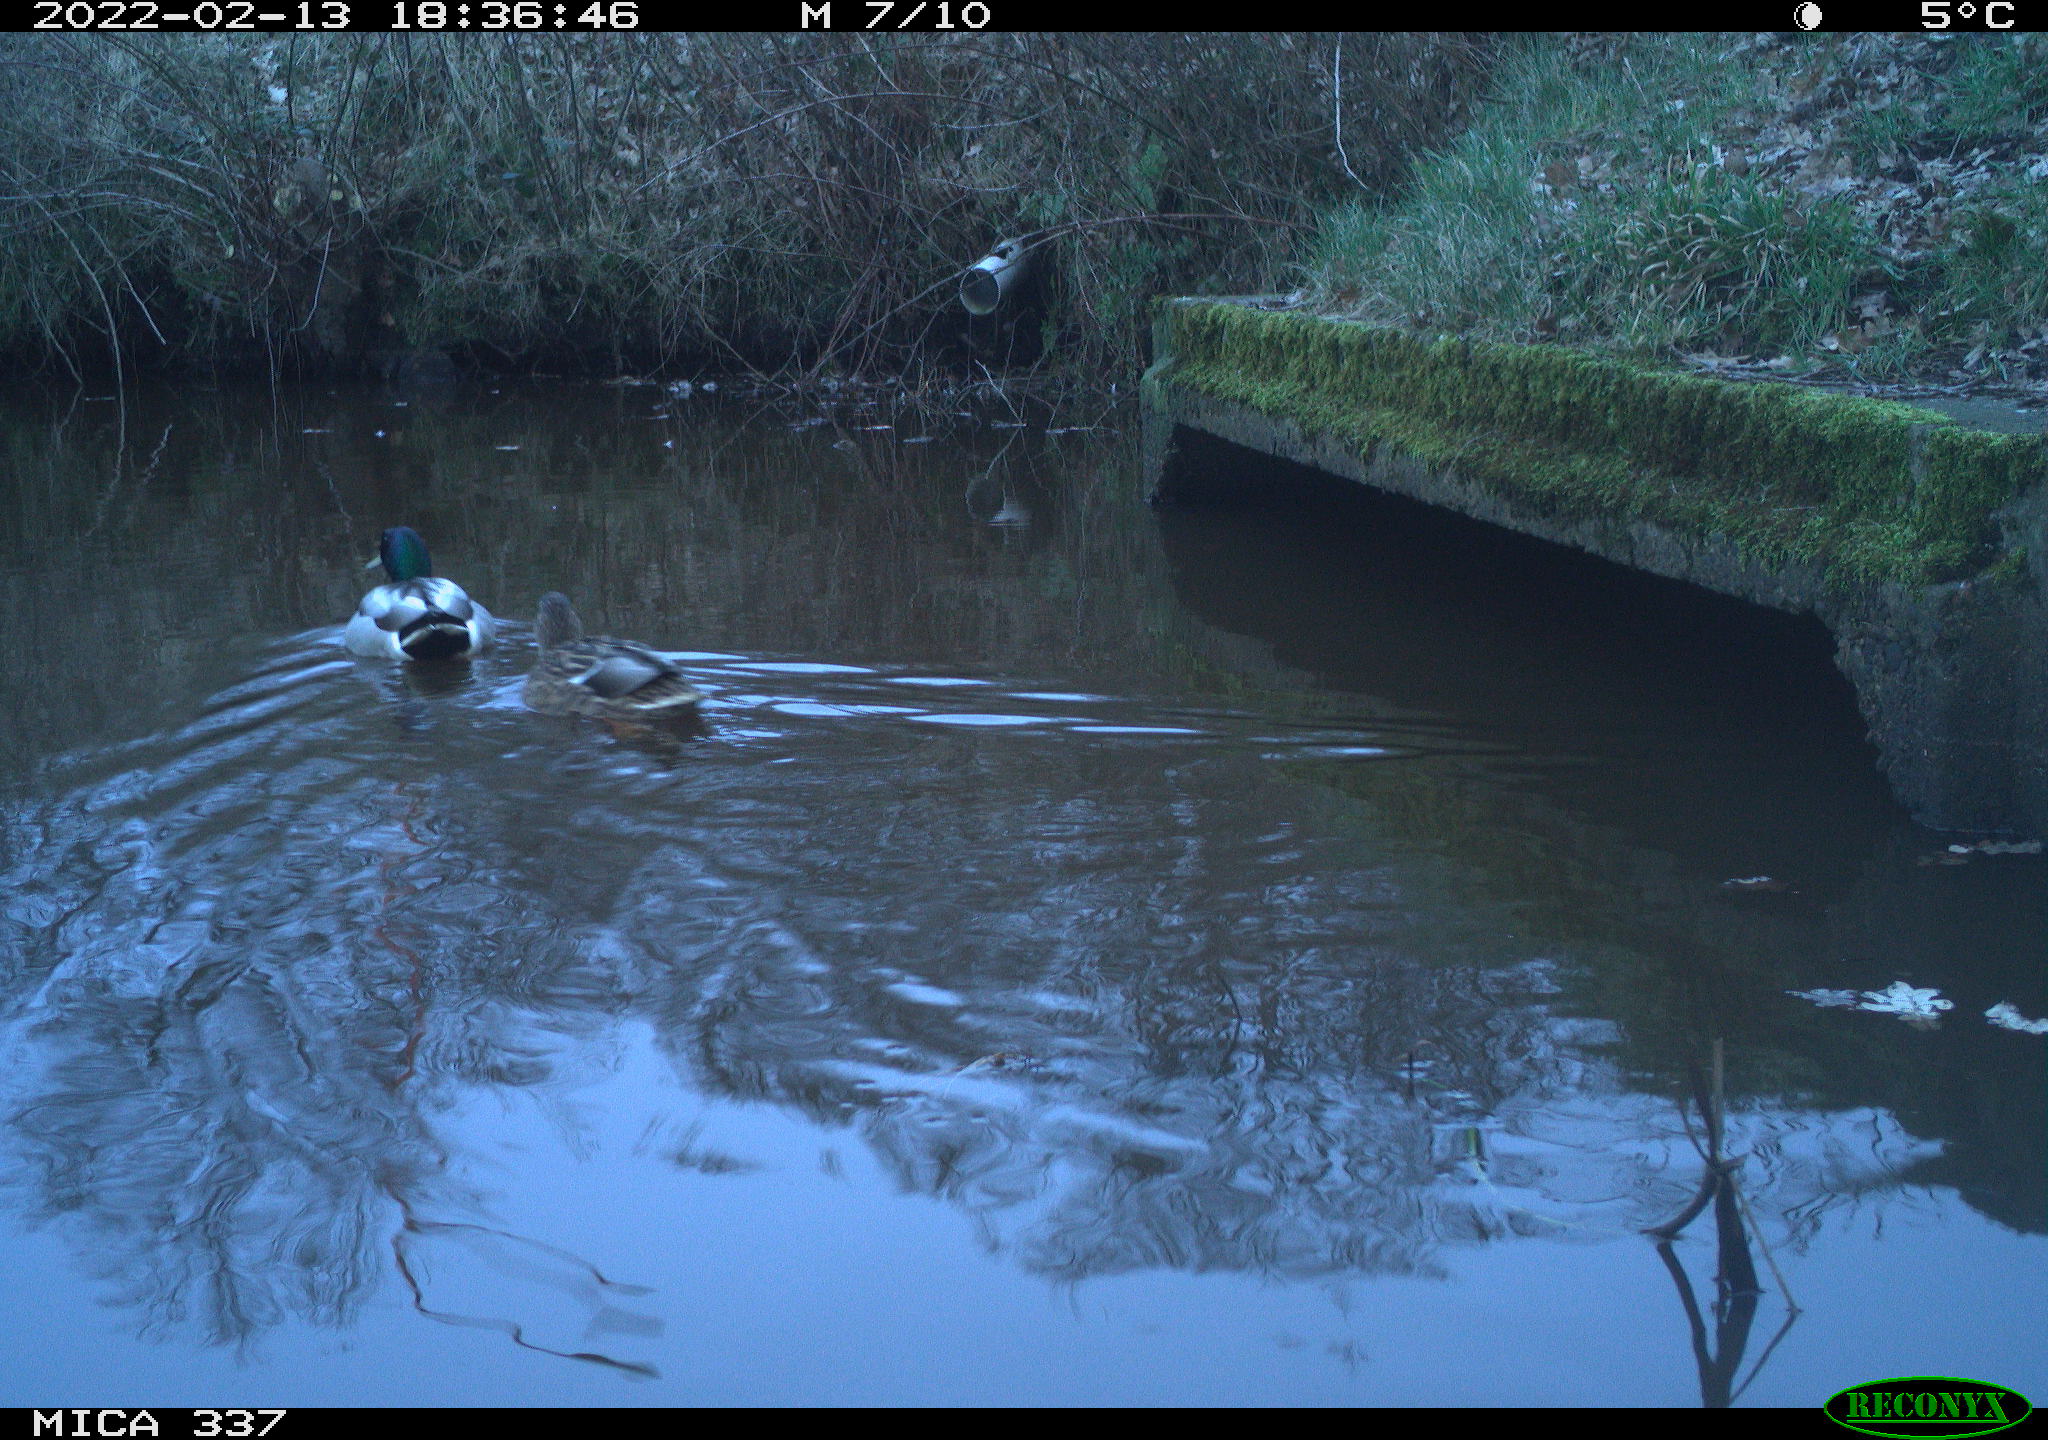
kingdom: Animalia
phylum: Chordata
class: Aves
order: Anseriformes
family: Anatidae
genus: Anas
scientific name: Anas platyrhynchos
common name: Mallard
